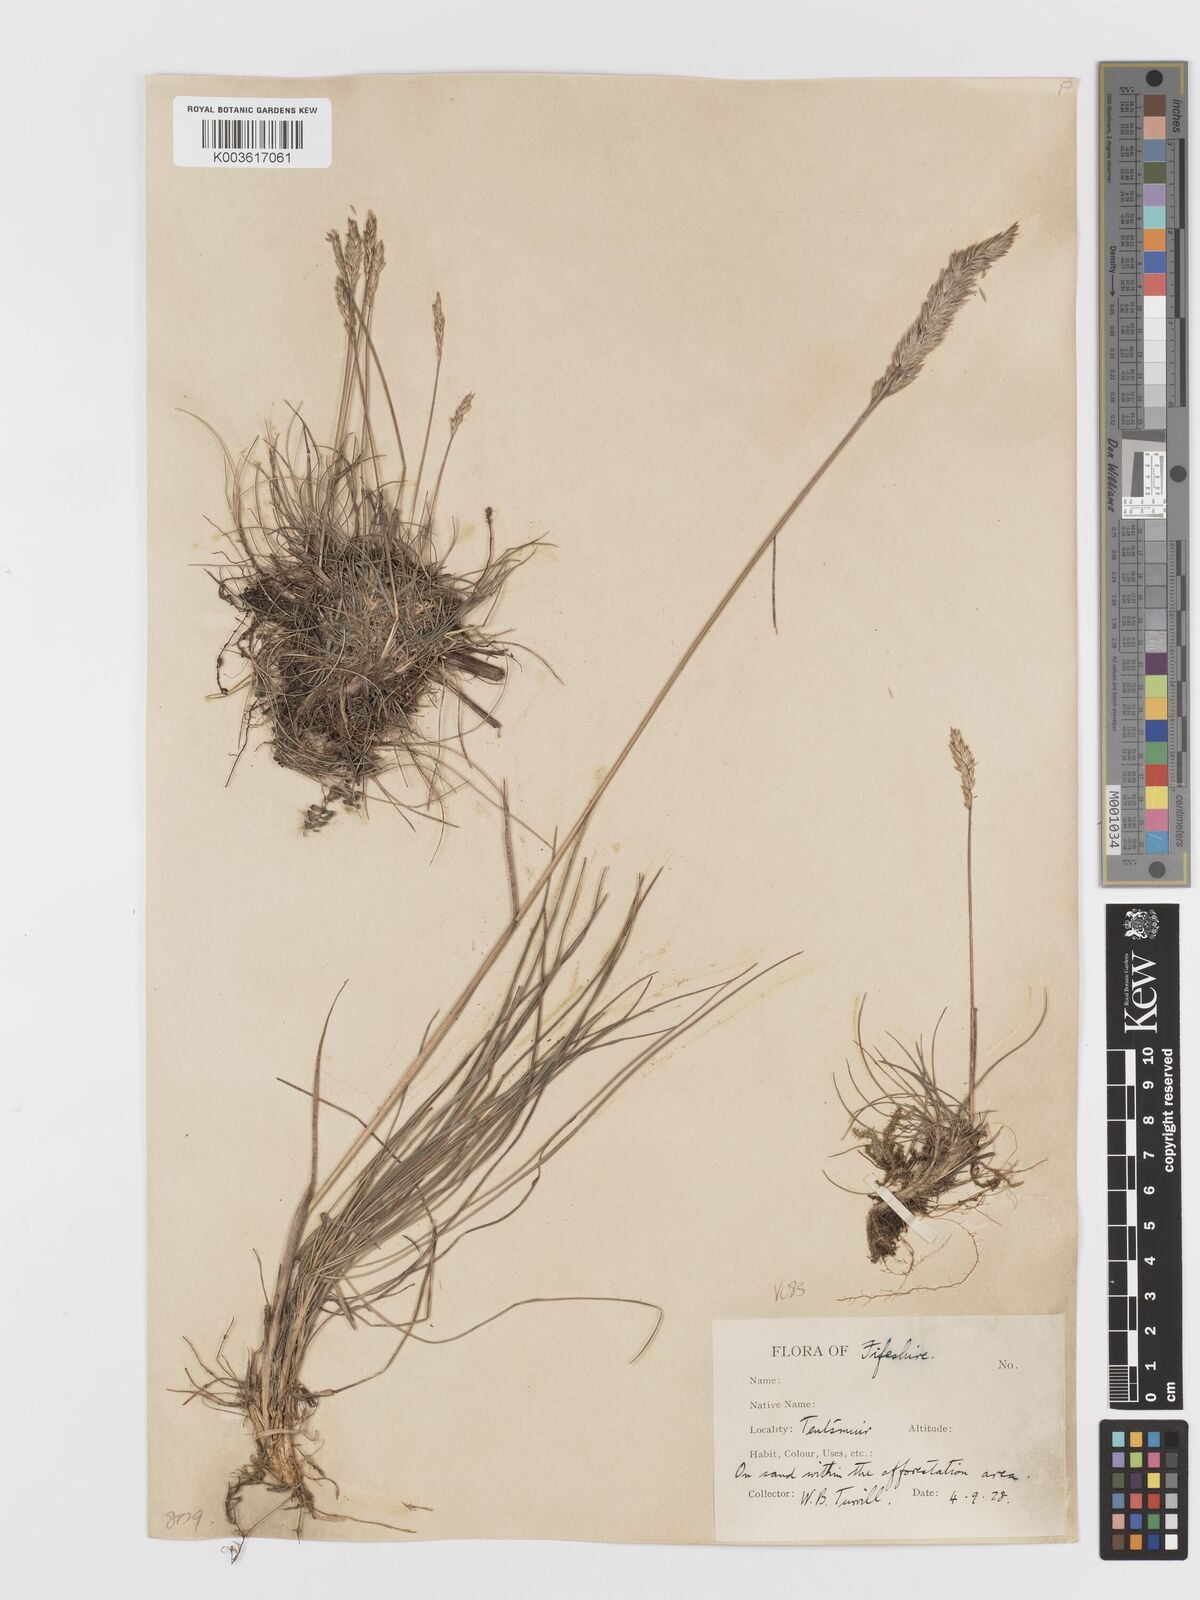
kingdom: Plantae
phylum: Tracheophyta
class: Liliopsida
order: Poales
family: Poaceae
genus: Koeleria
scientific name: Koeleria macrantha
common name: Crested hair-grass
